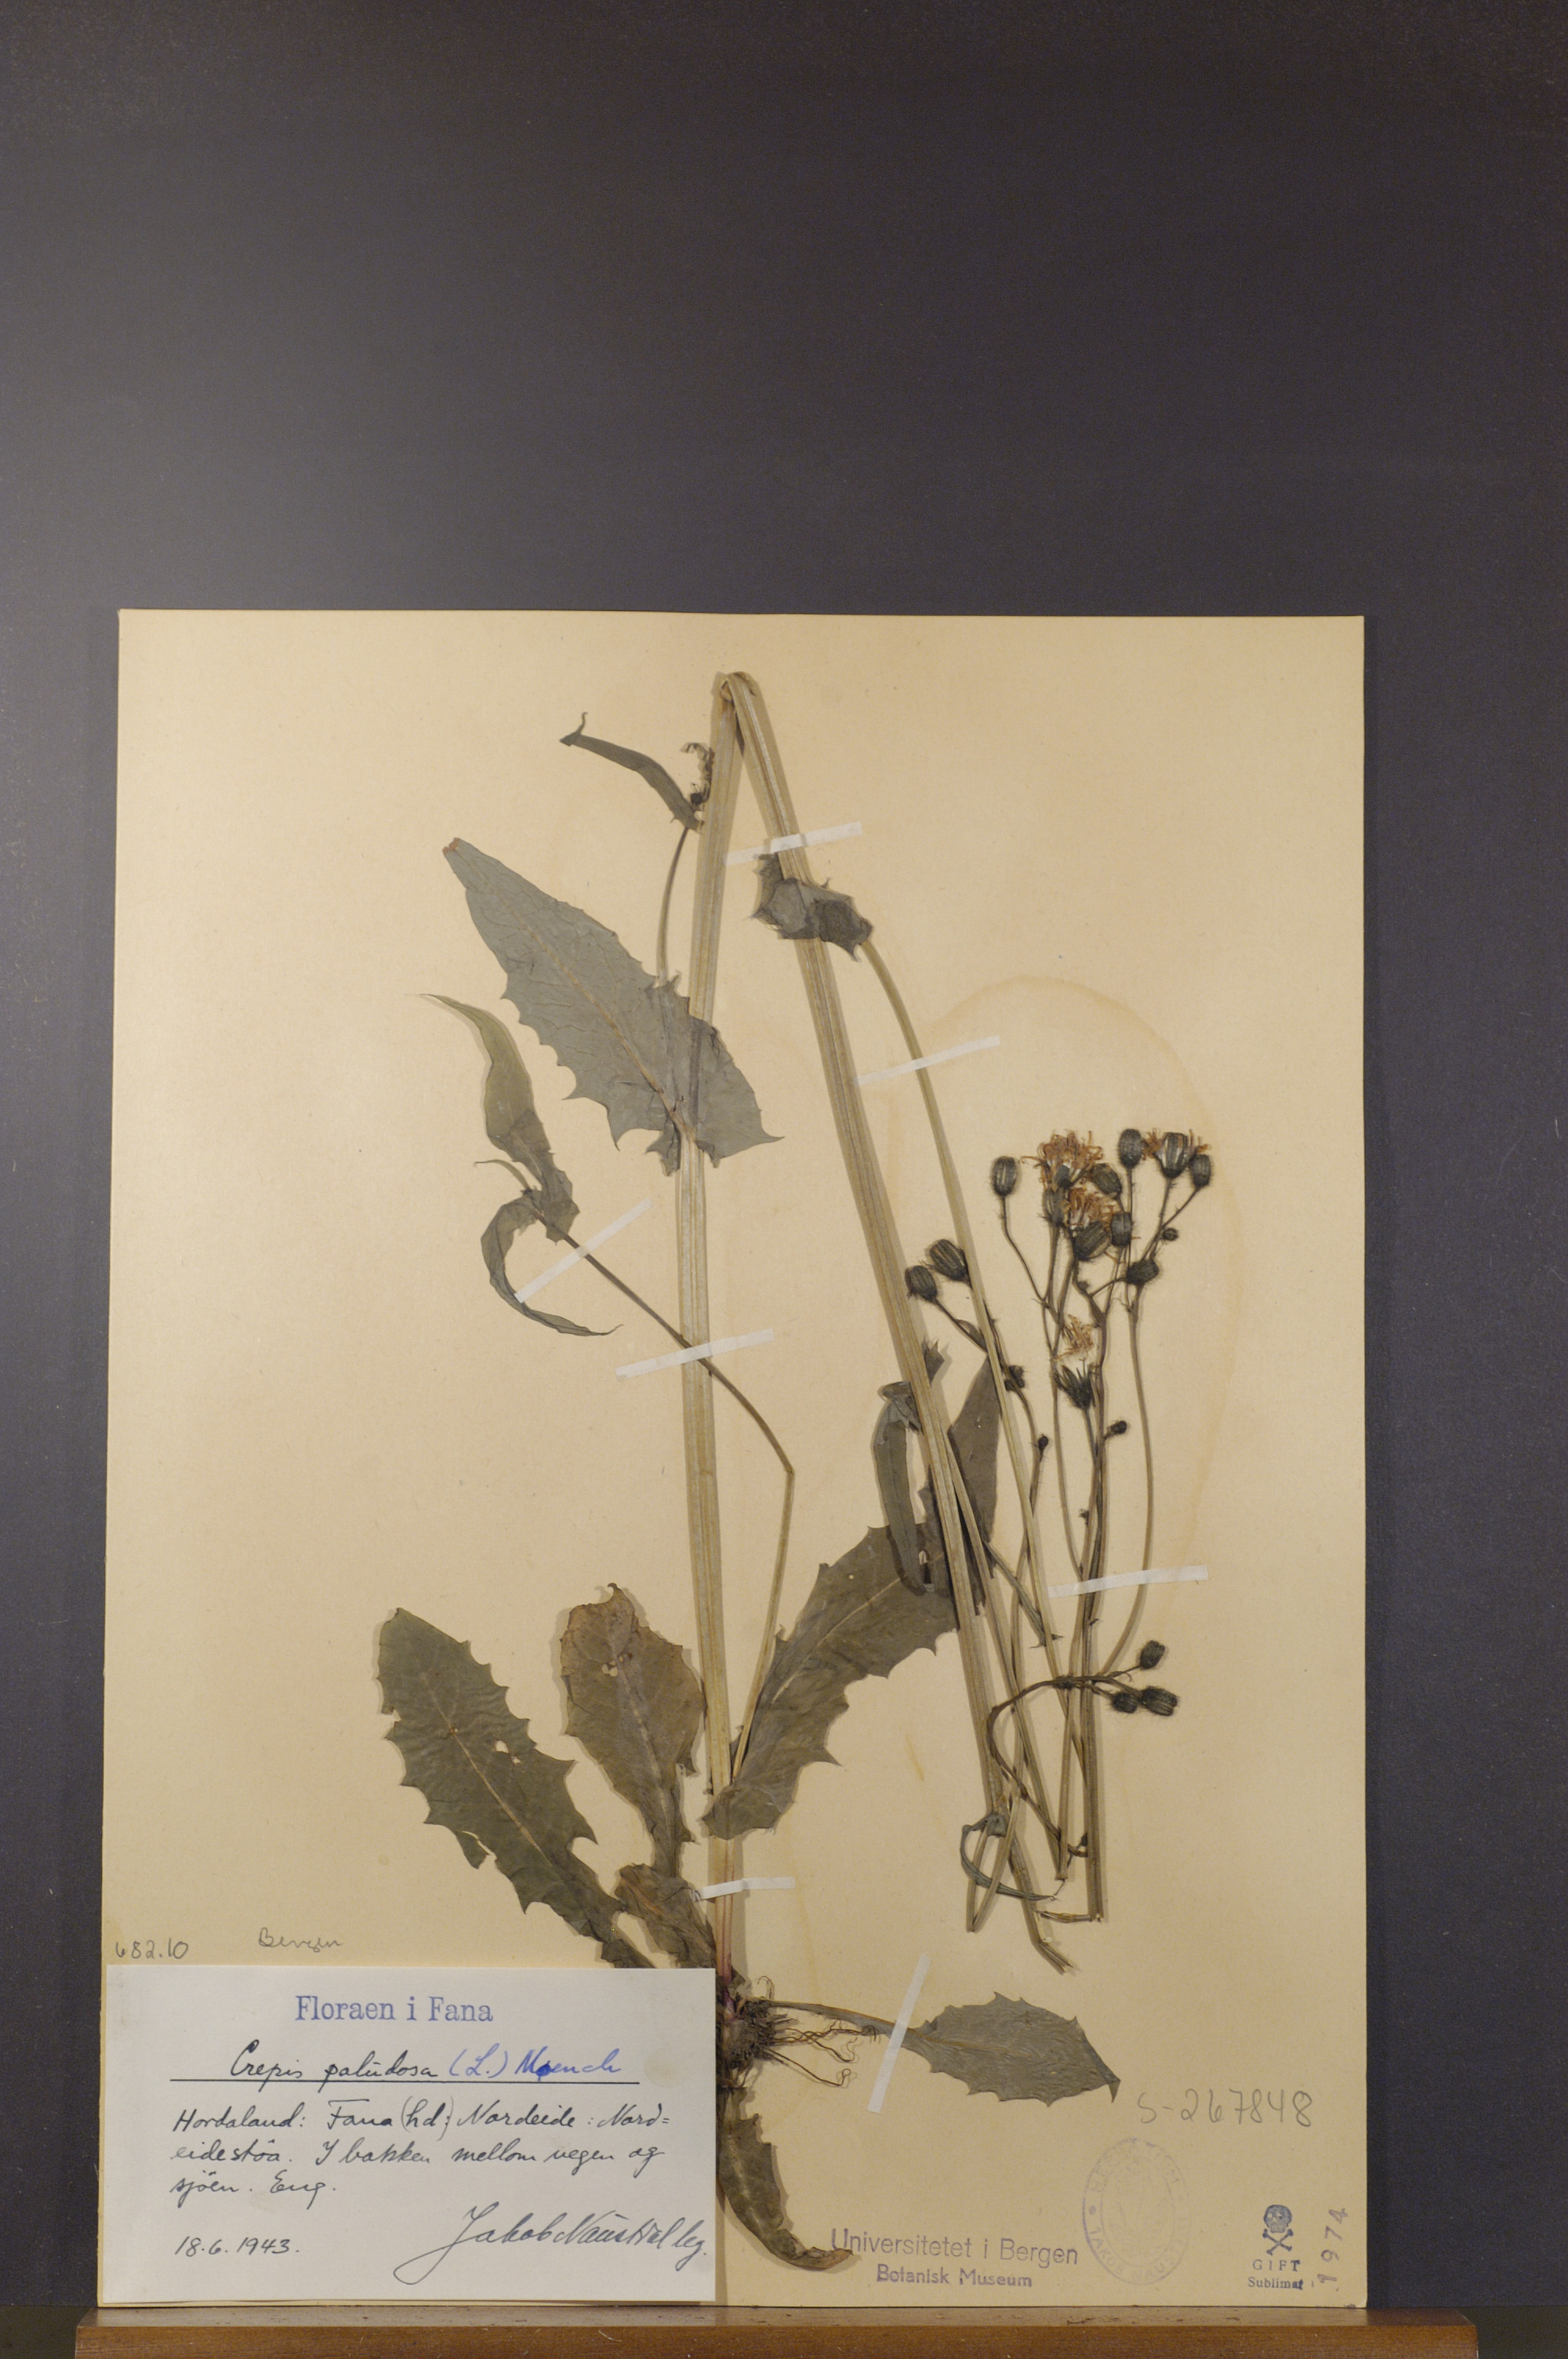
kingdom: Plantae
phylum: Tracheophyta
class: Magnoliopsida
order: Asterales
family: Asteraceae
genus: Crepis
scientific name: Crepis paludosa
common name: Marsh hawk's-beard
